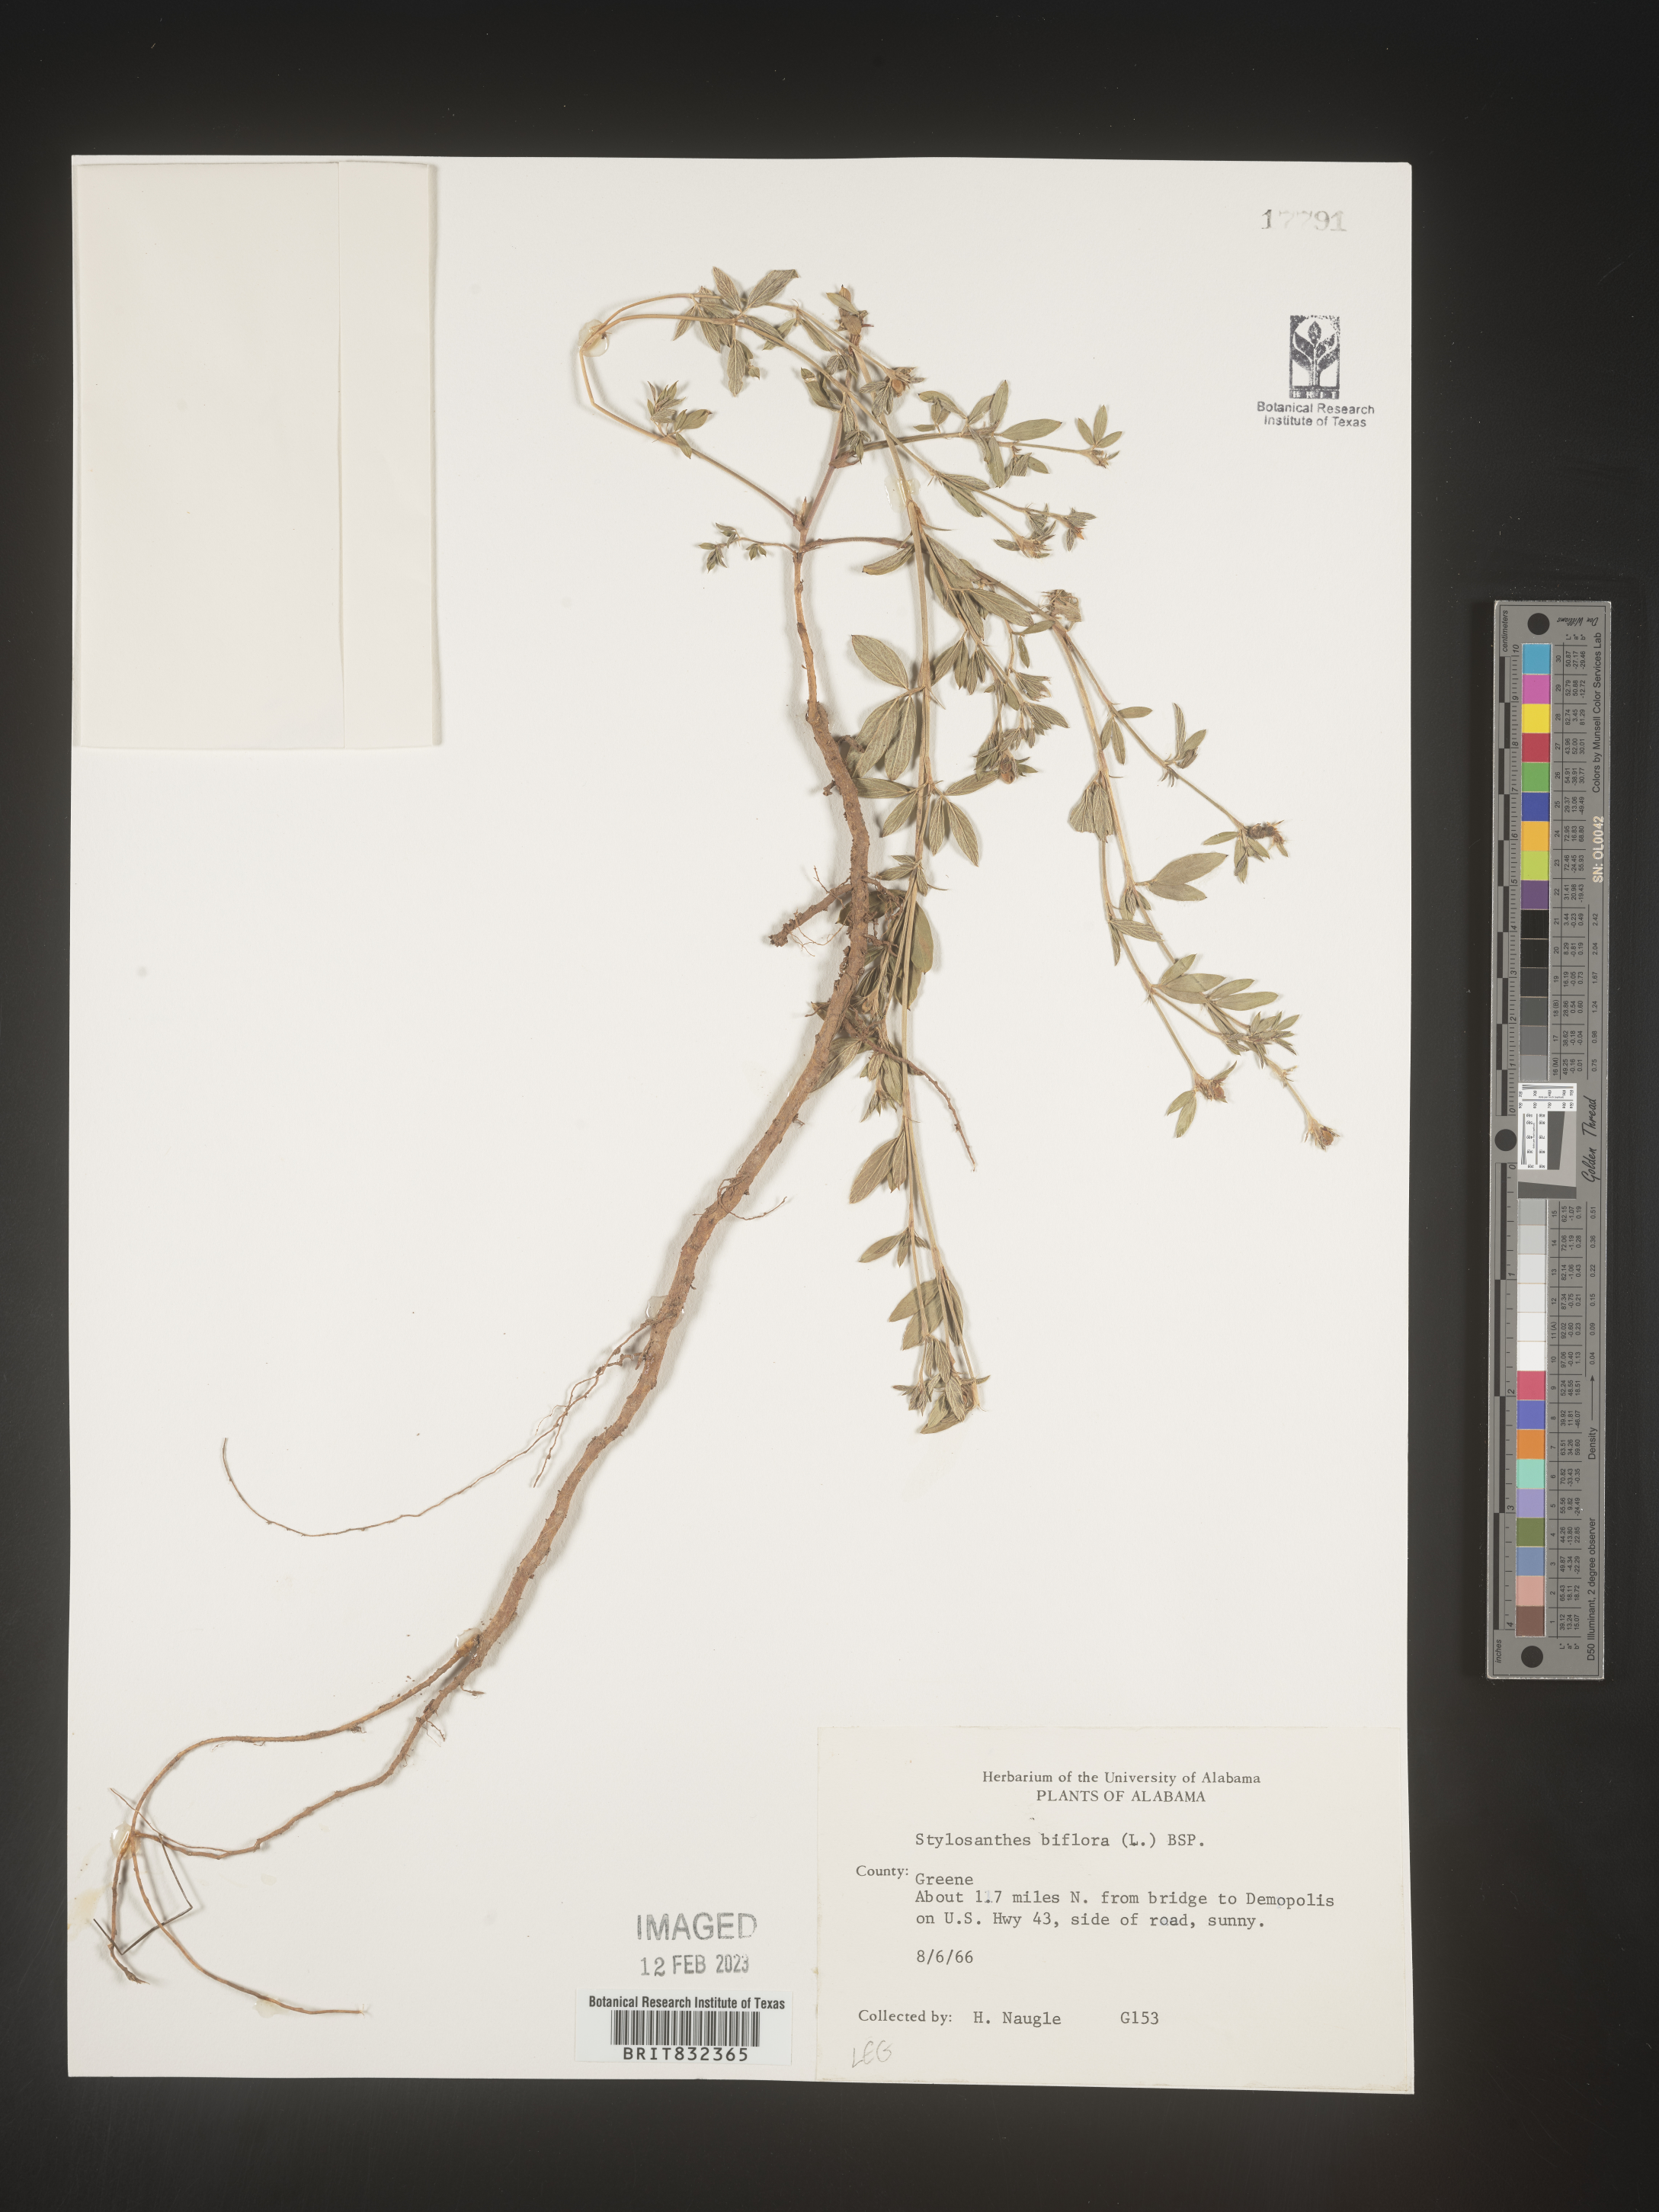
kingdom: Plantae
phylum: Tracheophyta
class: Magnoliopsida
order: Fabales
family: Fabaceae
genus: Stylosanthes
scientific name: Stylosanthes biflora
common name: Two-flower pencil-flower
